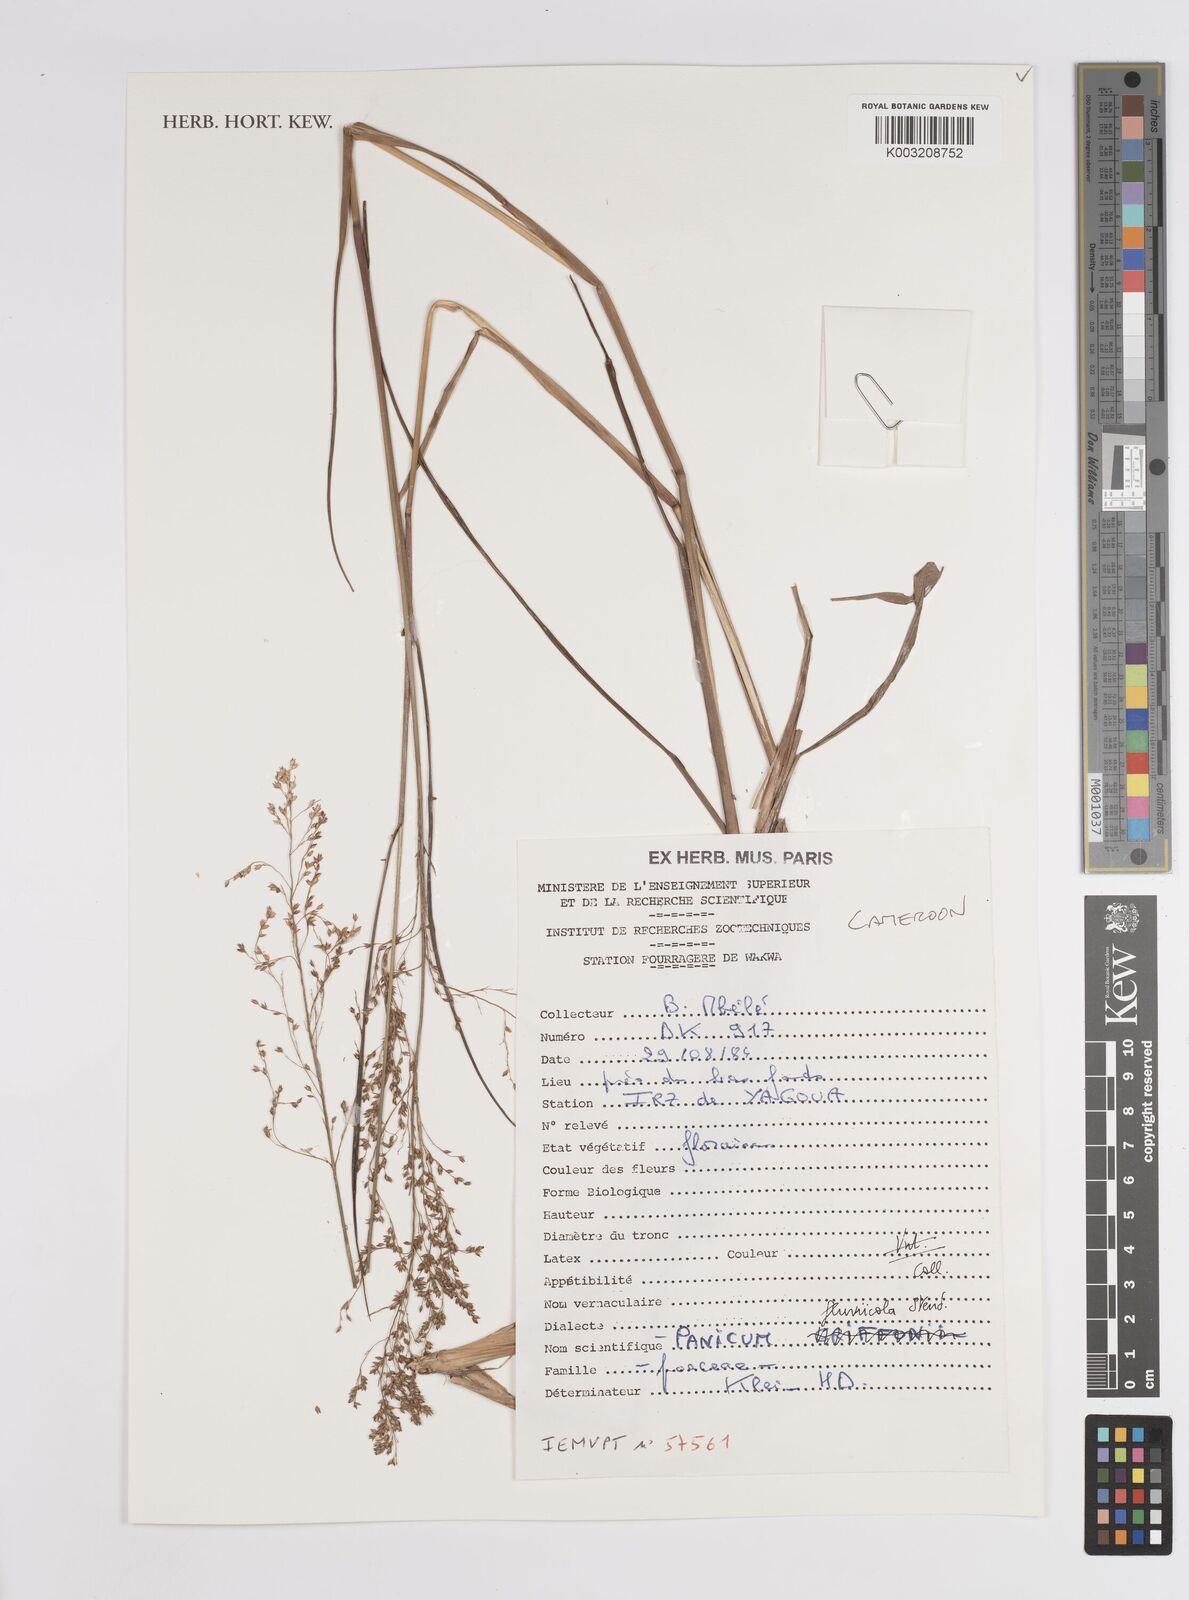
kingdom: Plantae
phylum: Tracheophyta
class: Liliopsida
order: Poales
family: Poaceae
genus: Panicum
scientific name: Panicum fluviicola
